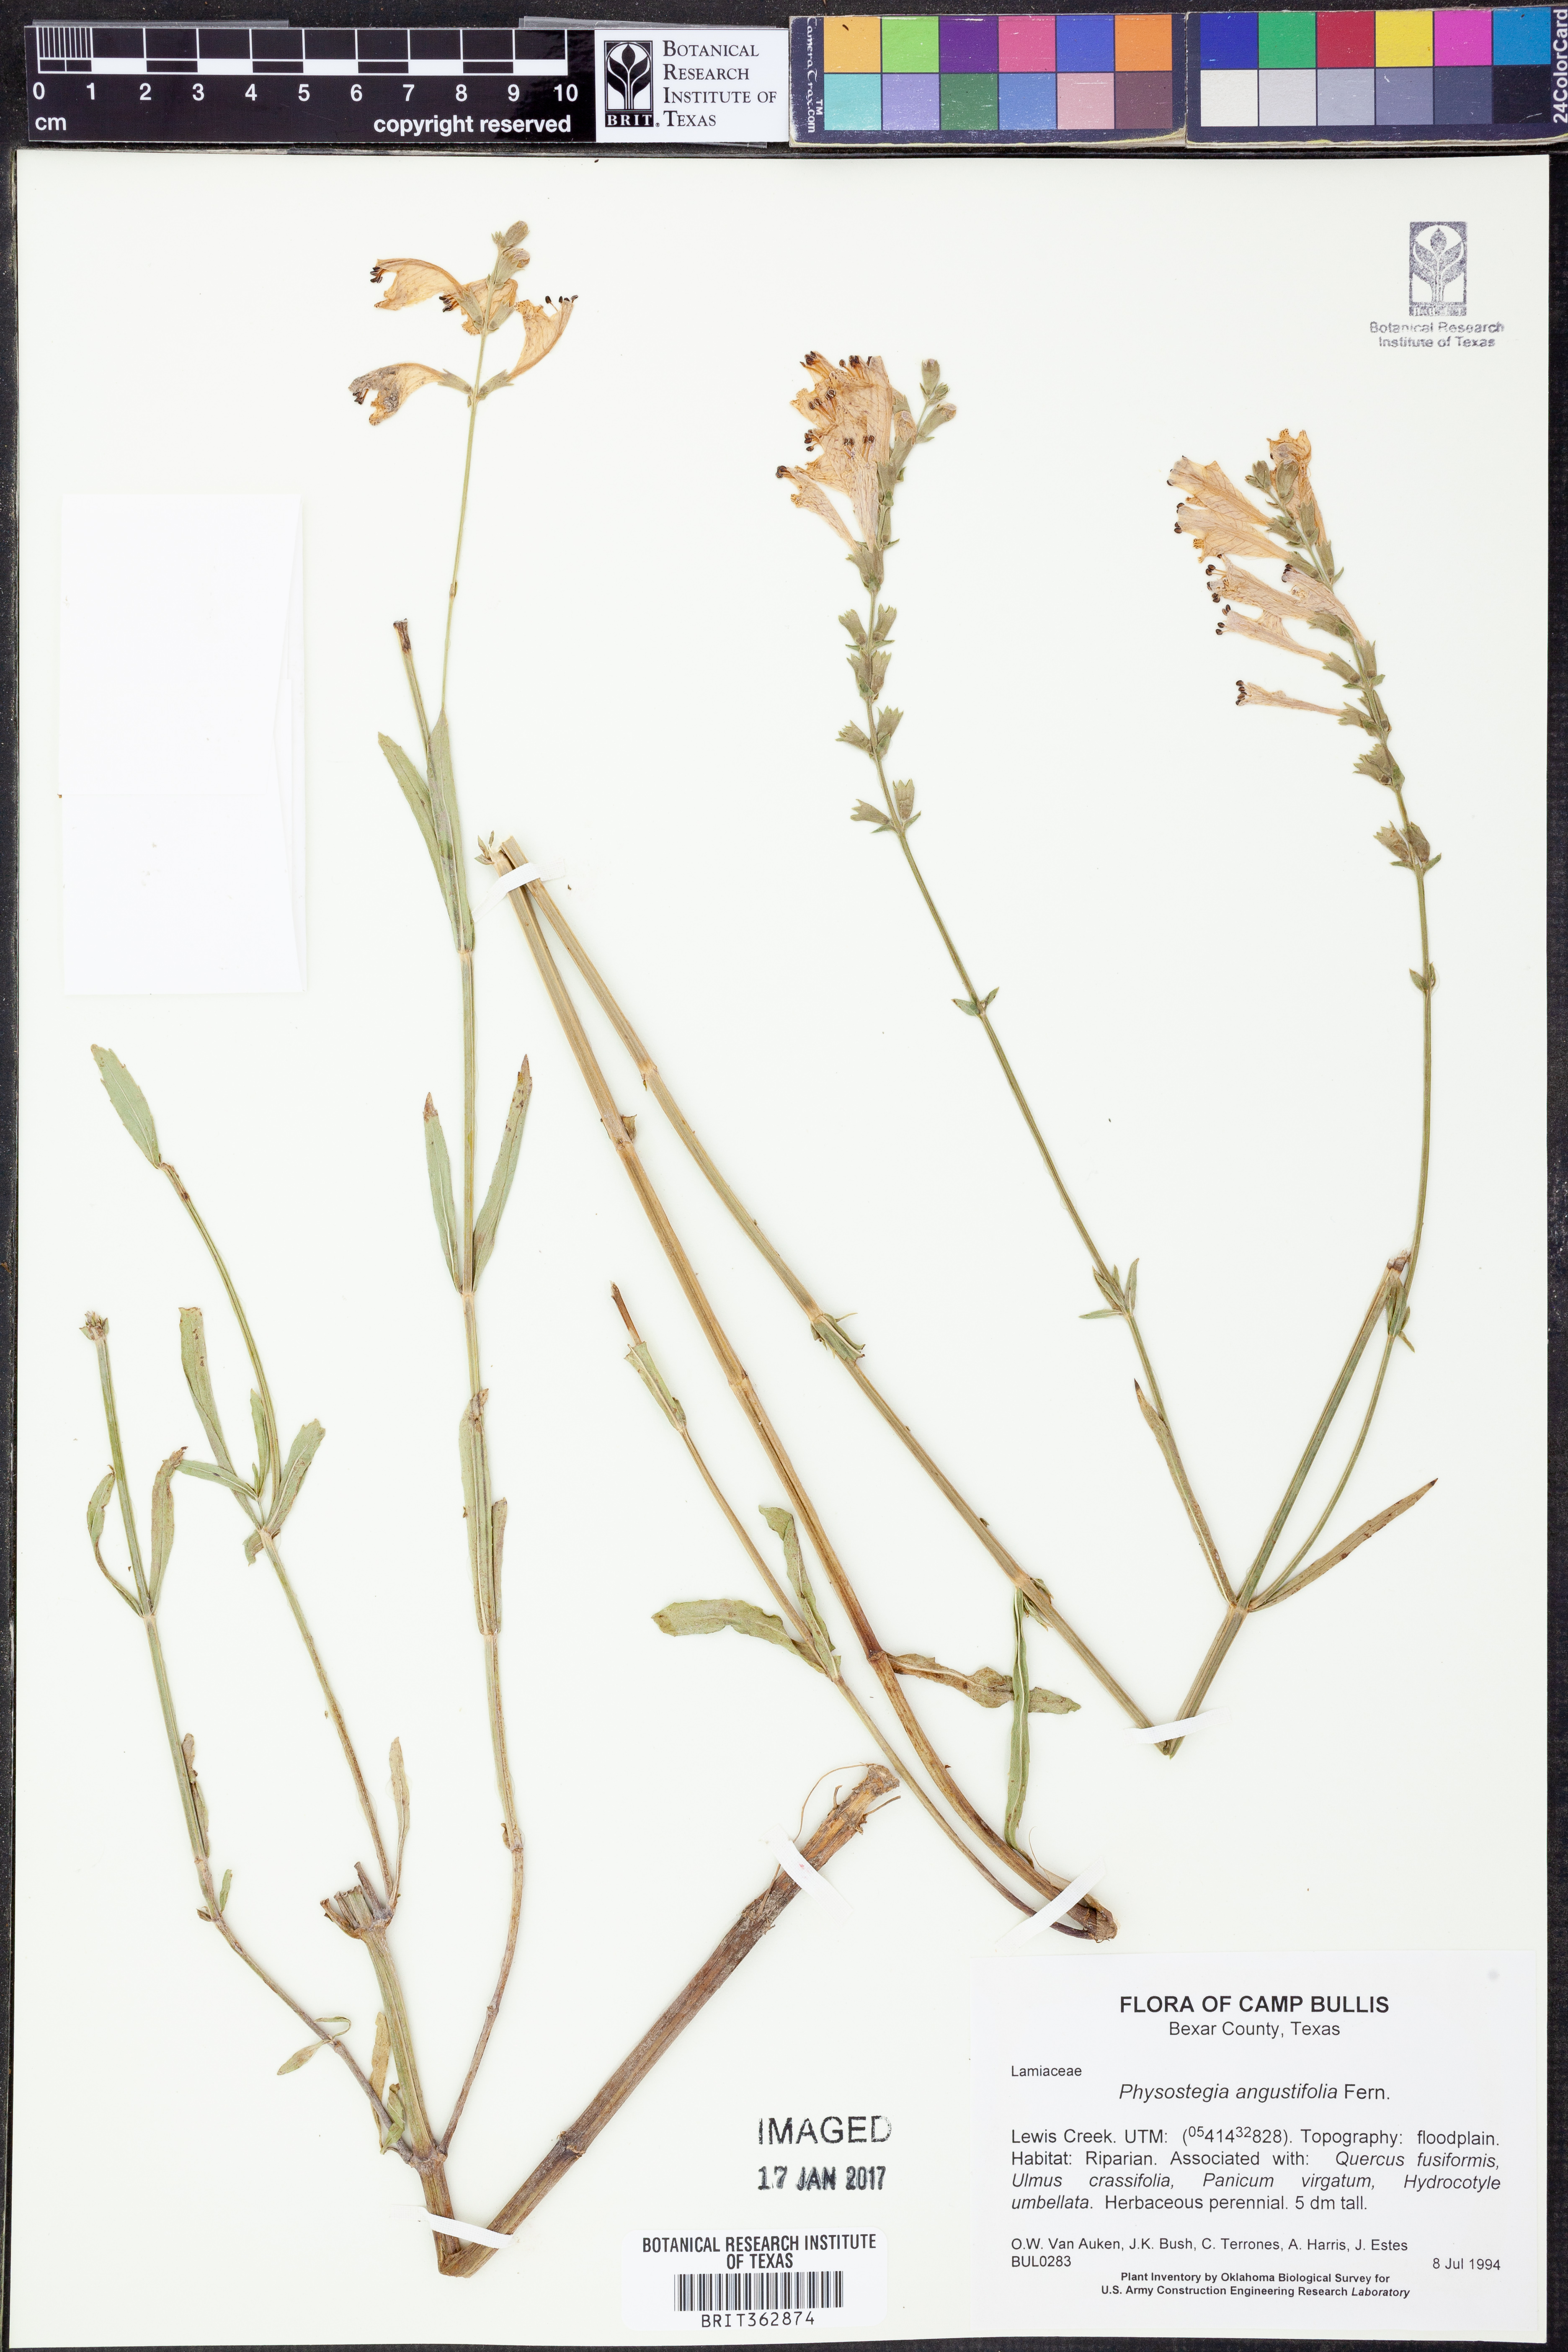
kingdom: Plantae
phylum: Tracheophyta
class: Magnoliopsida
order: Lamiales
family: Lamiaceae
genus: Physostegia
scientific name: Physostegia angustifolia
